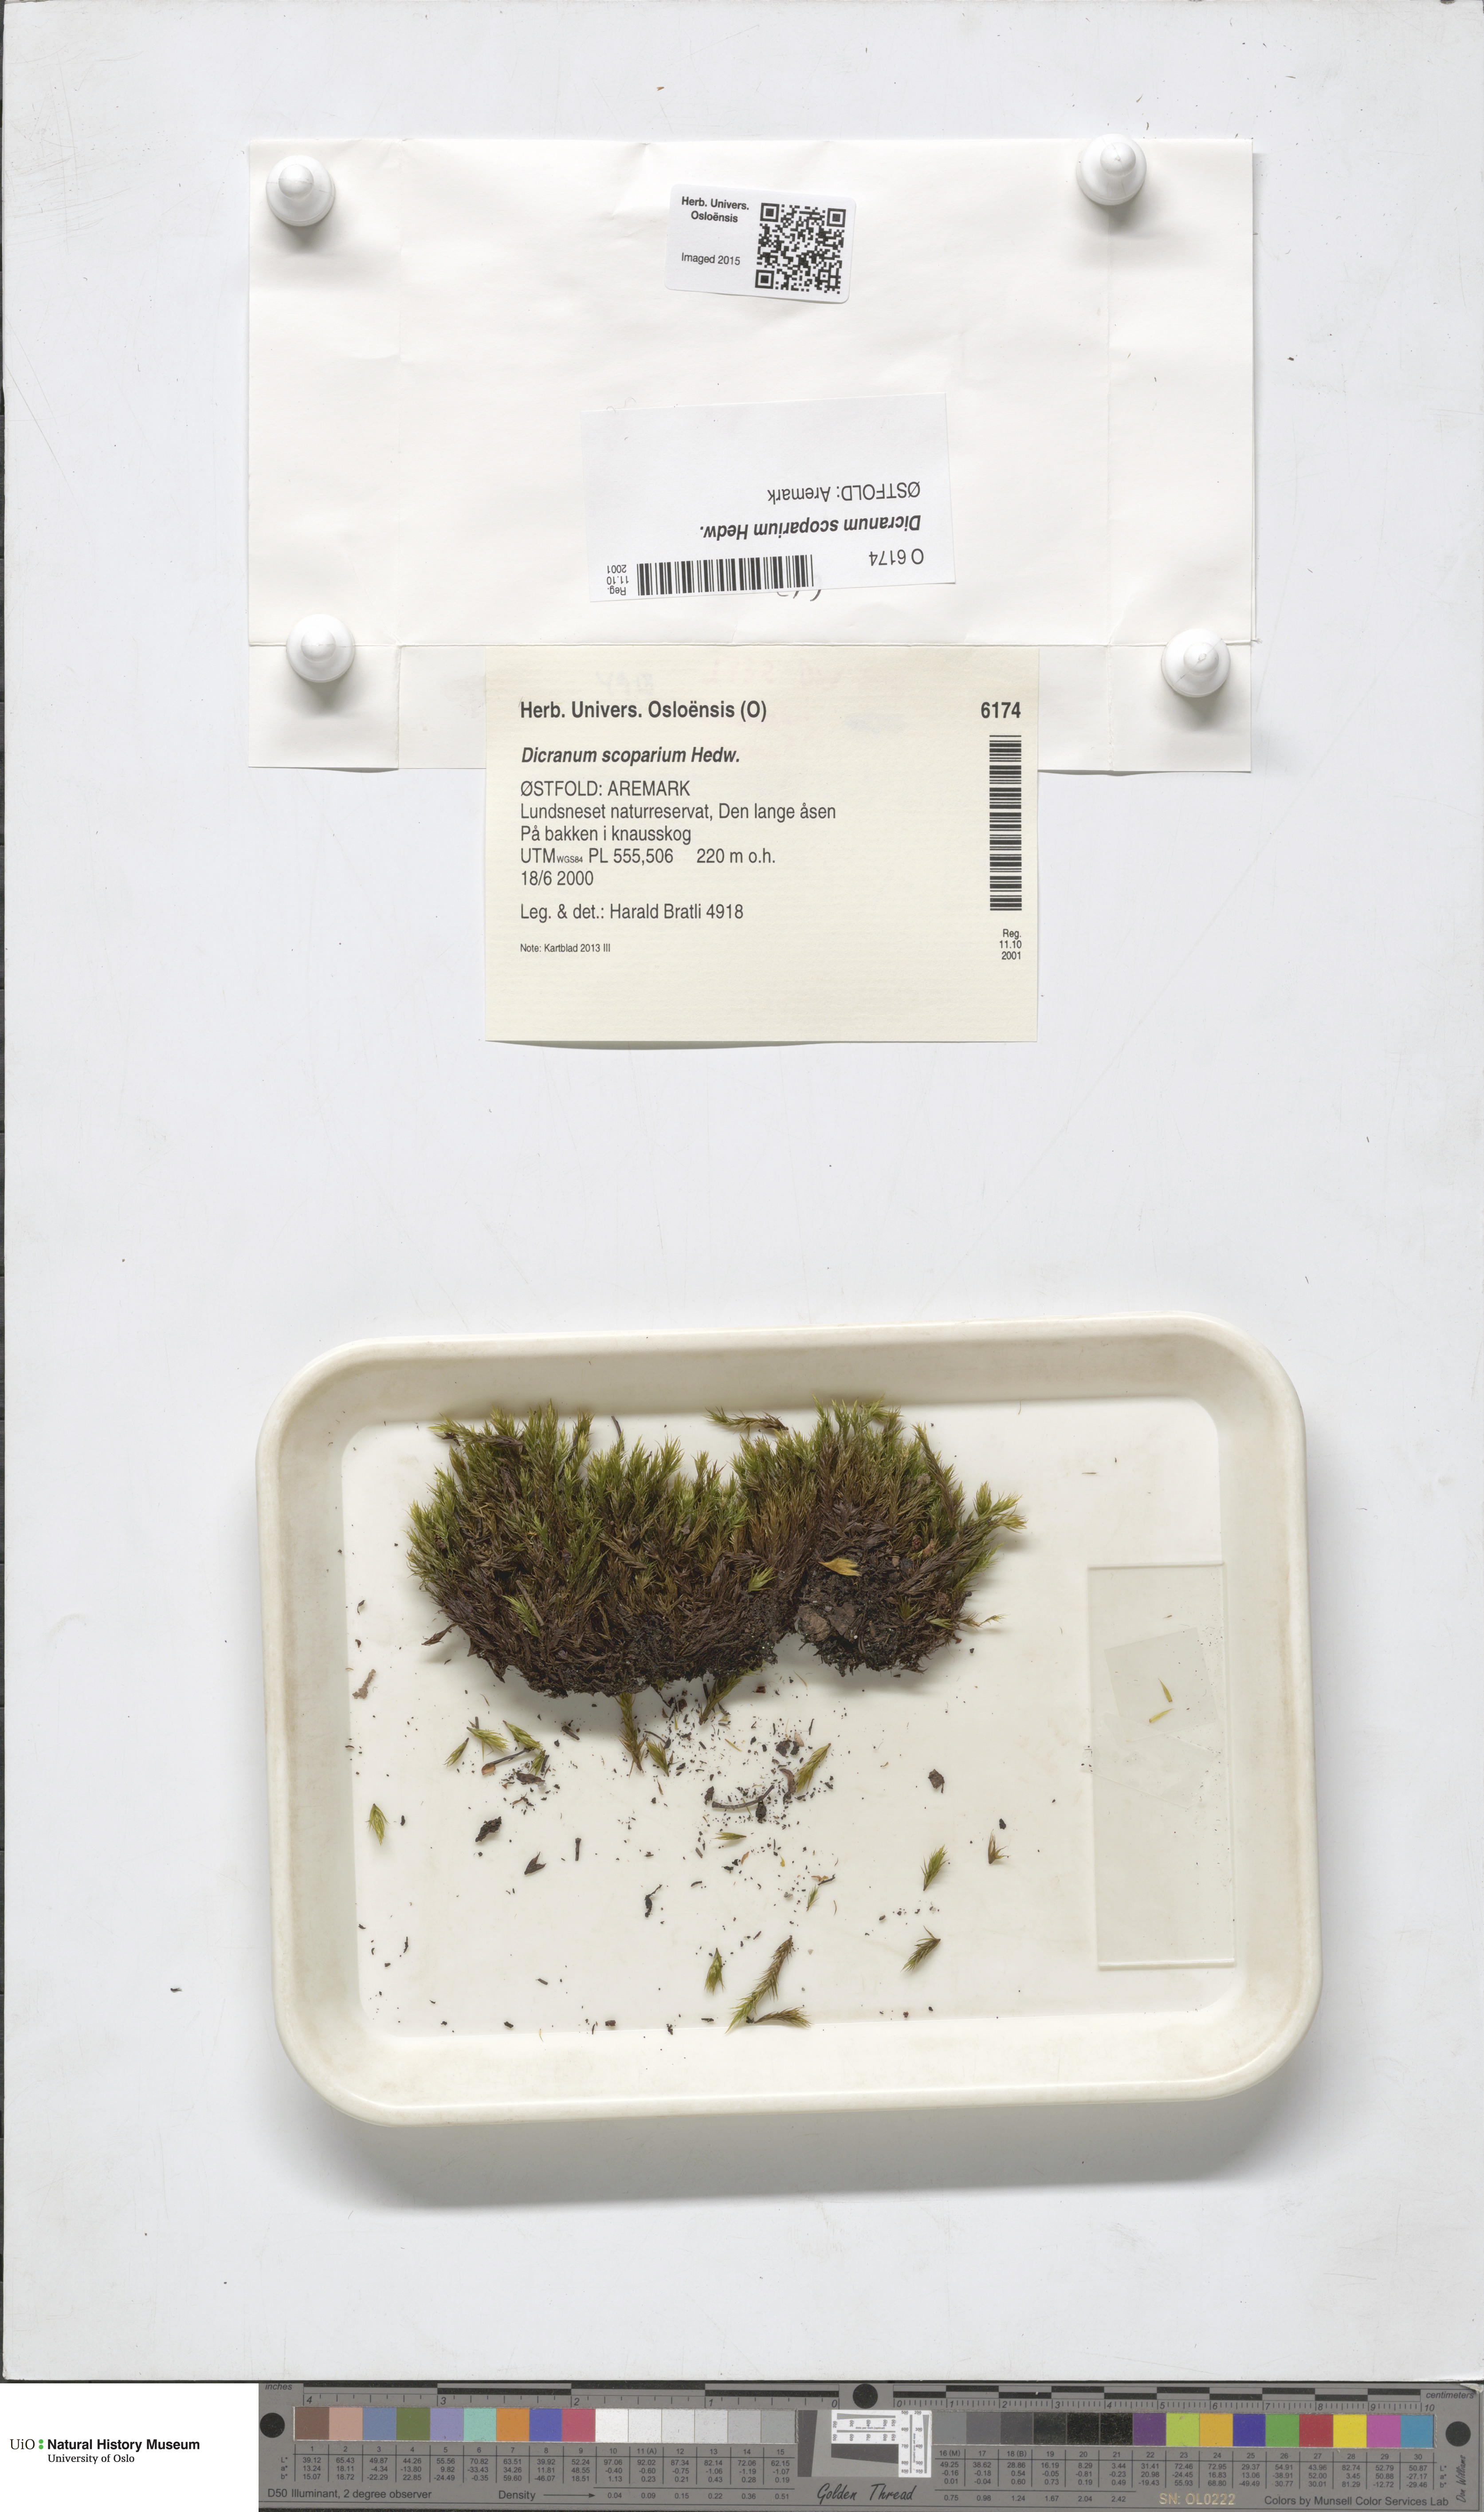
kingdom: Plantae
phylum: Bryophyta
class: Bryopsida
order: Dicranales
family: Dicranaceae
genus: Dicranum
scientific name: Dicranum scoparium
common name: Broom fork-moss
